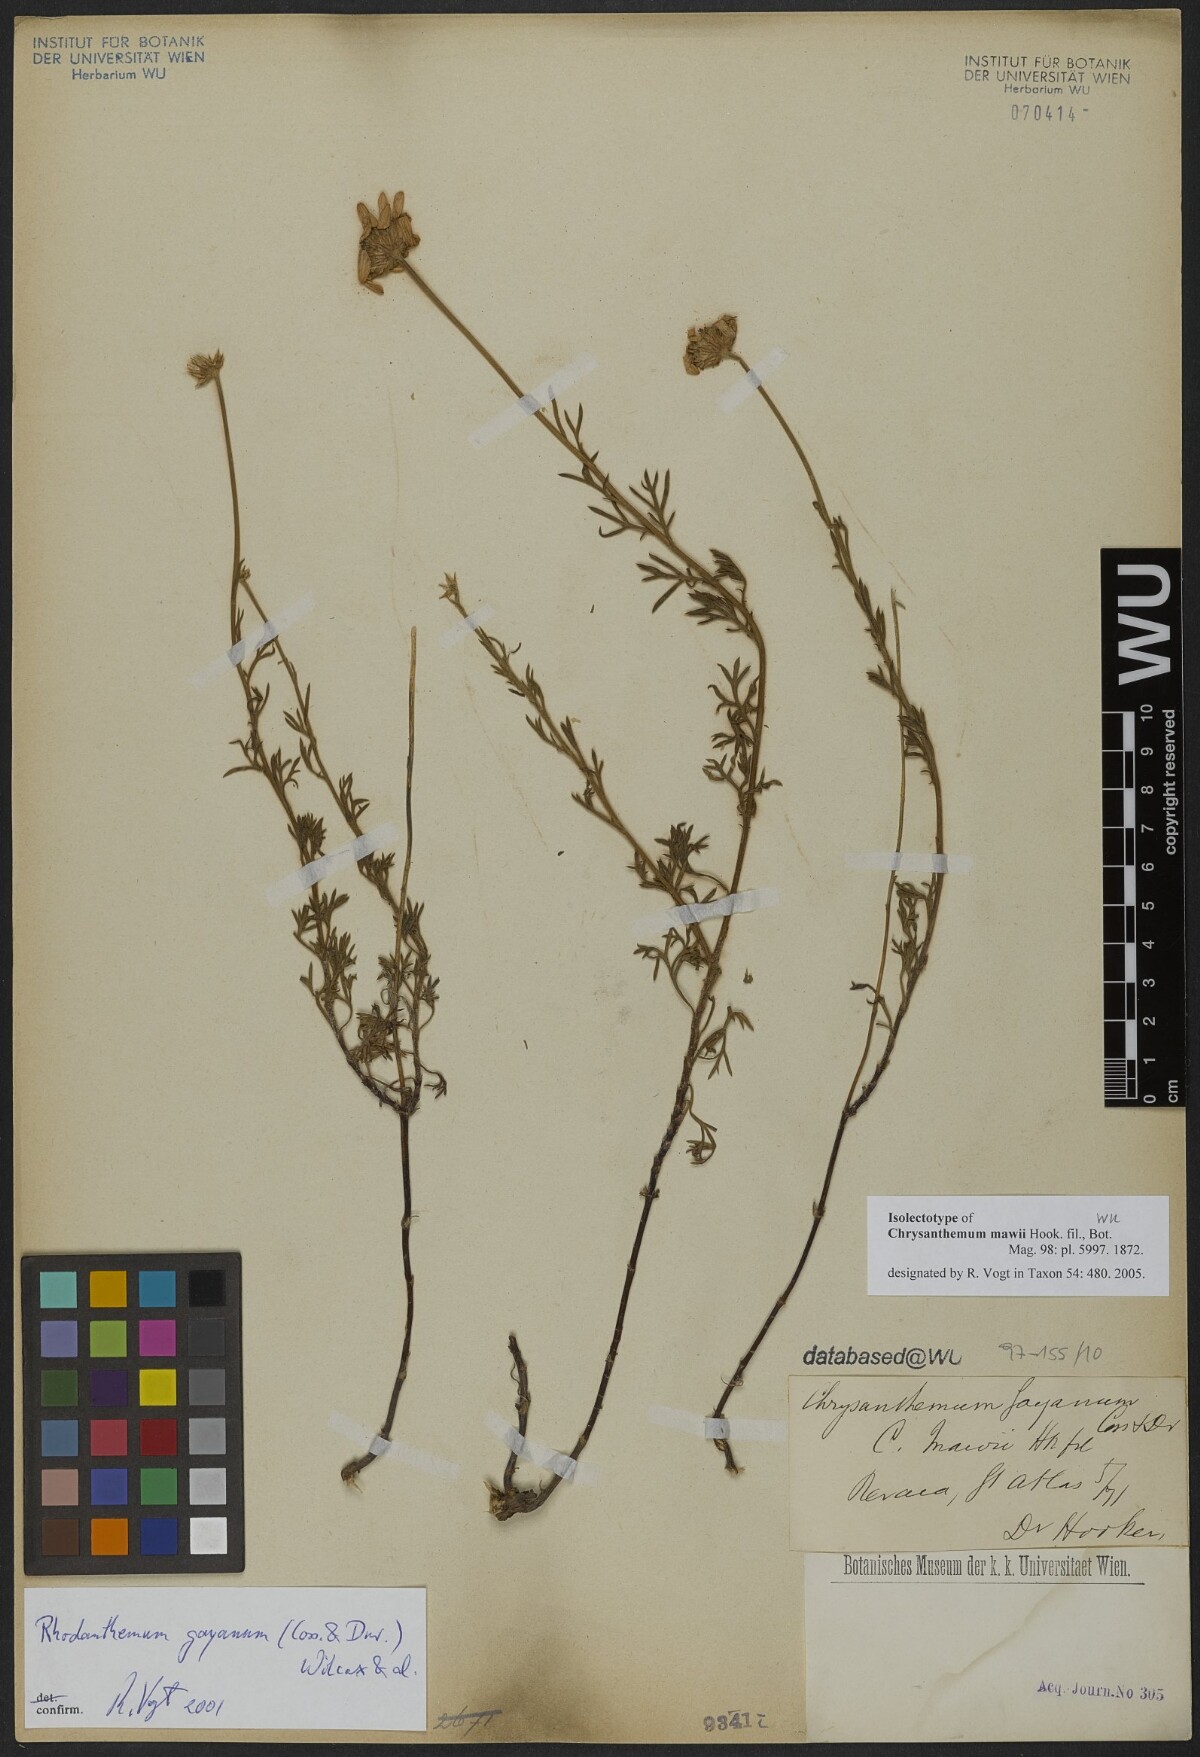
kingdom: Plantae
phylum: Tracheophyta
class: Magnoliopsida
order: Asterales
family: Asteraceae
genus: Rhodanthemum
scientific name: Rhodanthemum gayanum
